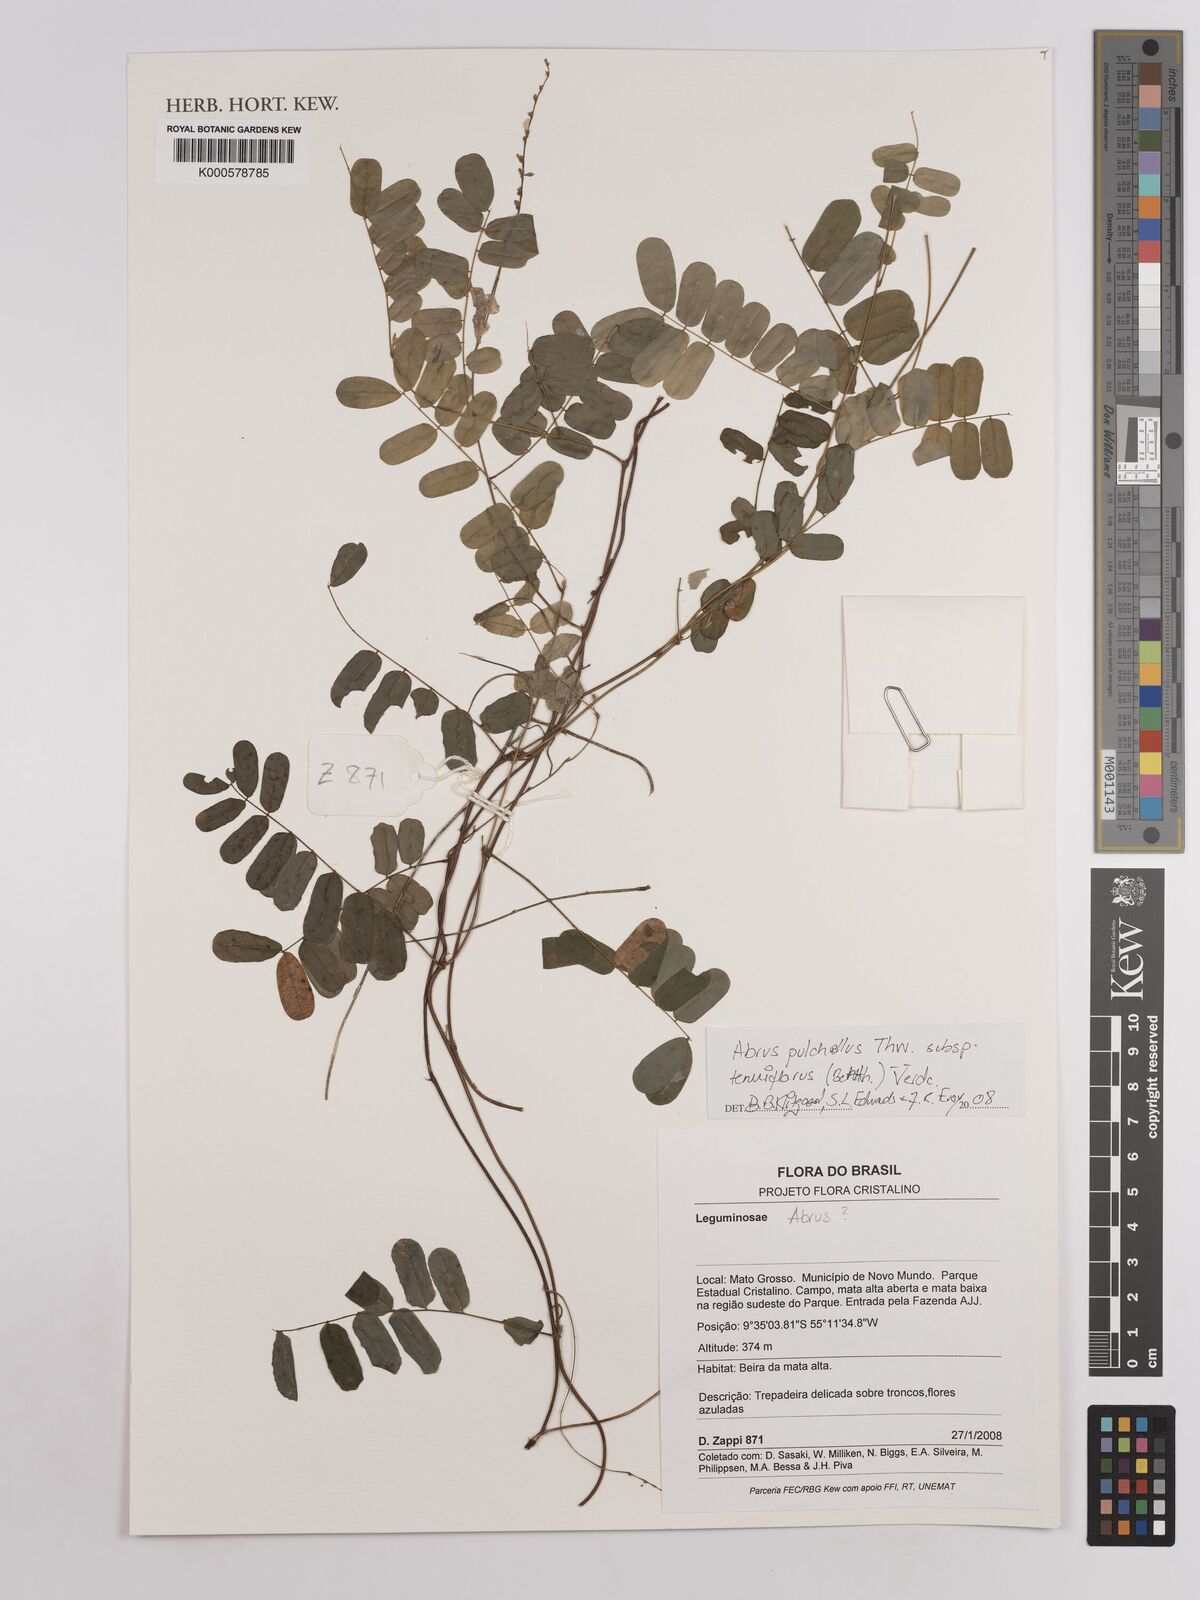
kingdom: Plantae
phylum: Tracheophyta
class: Magnoliopsida
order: Fabales
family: Fabaceae
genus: Abrus
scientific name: Abrus
